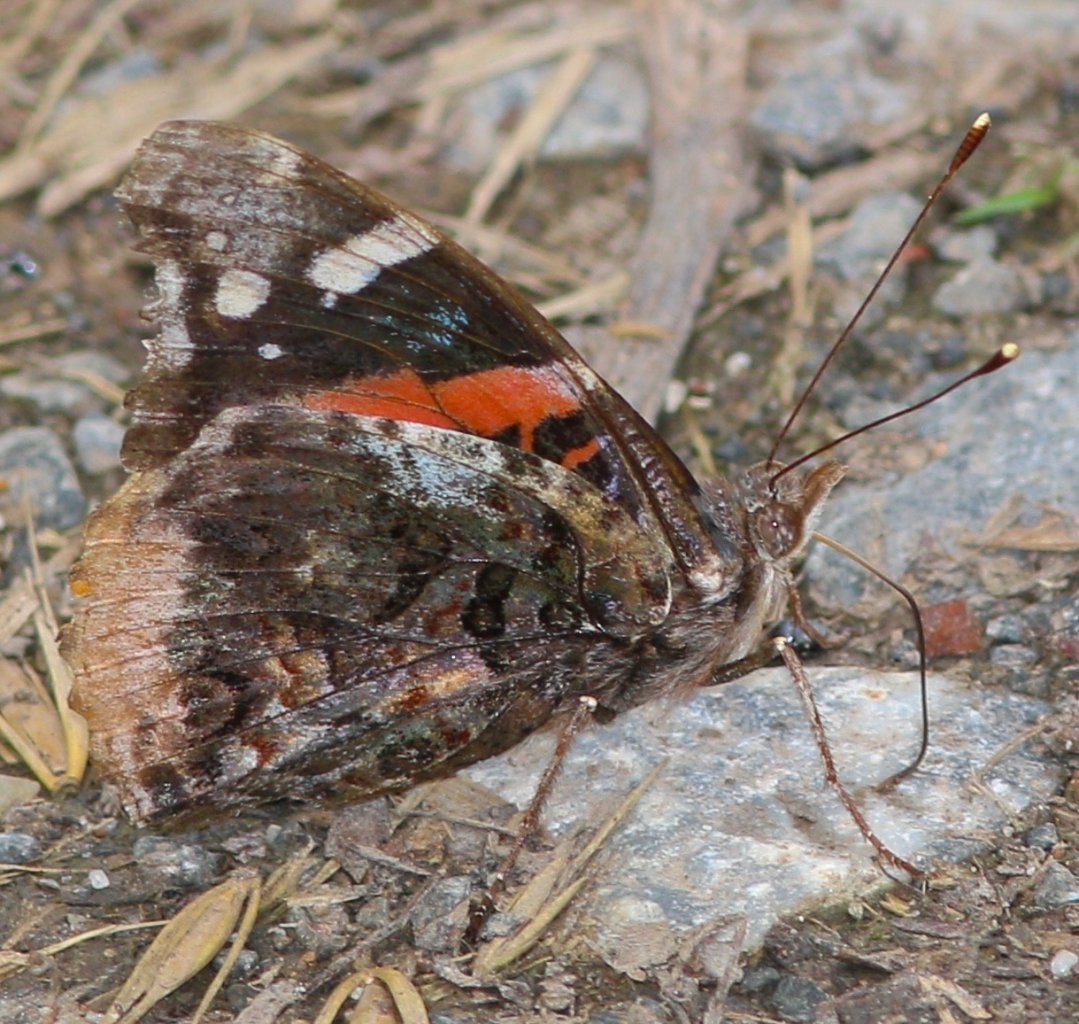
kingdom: Animalia
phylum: Arthropoda
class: Insecta
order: Lepidoptera
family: Nymphalidae
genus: Vanessa
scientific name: Vanessa atalanta
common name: Red Admiral
